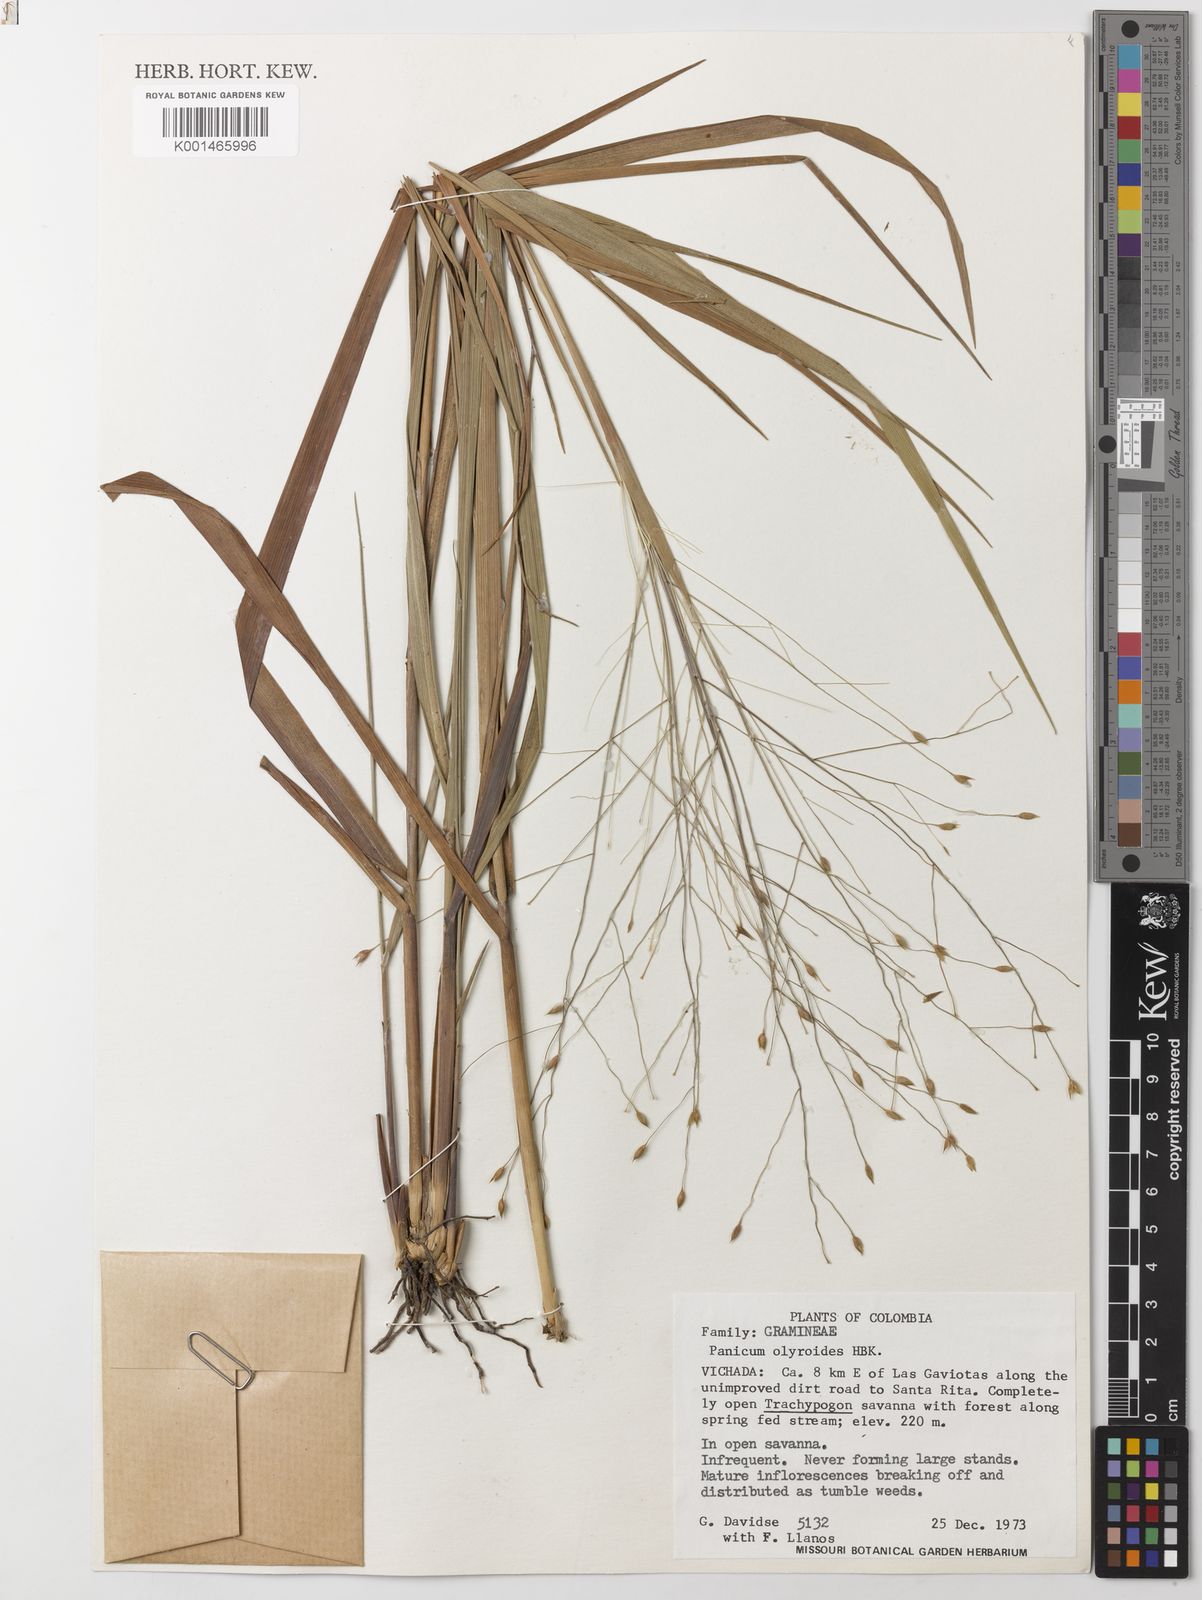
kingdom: Plantae
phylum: Tracheophyta
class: Liliopsida
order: Poales
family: Poaceae
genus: Panicum
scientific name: Panicum olyroides
